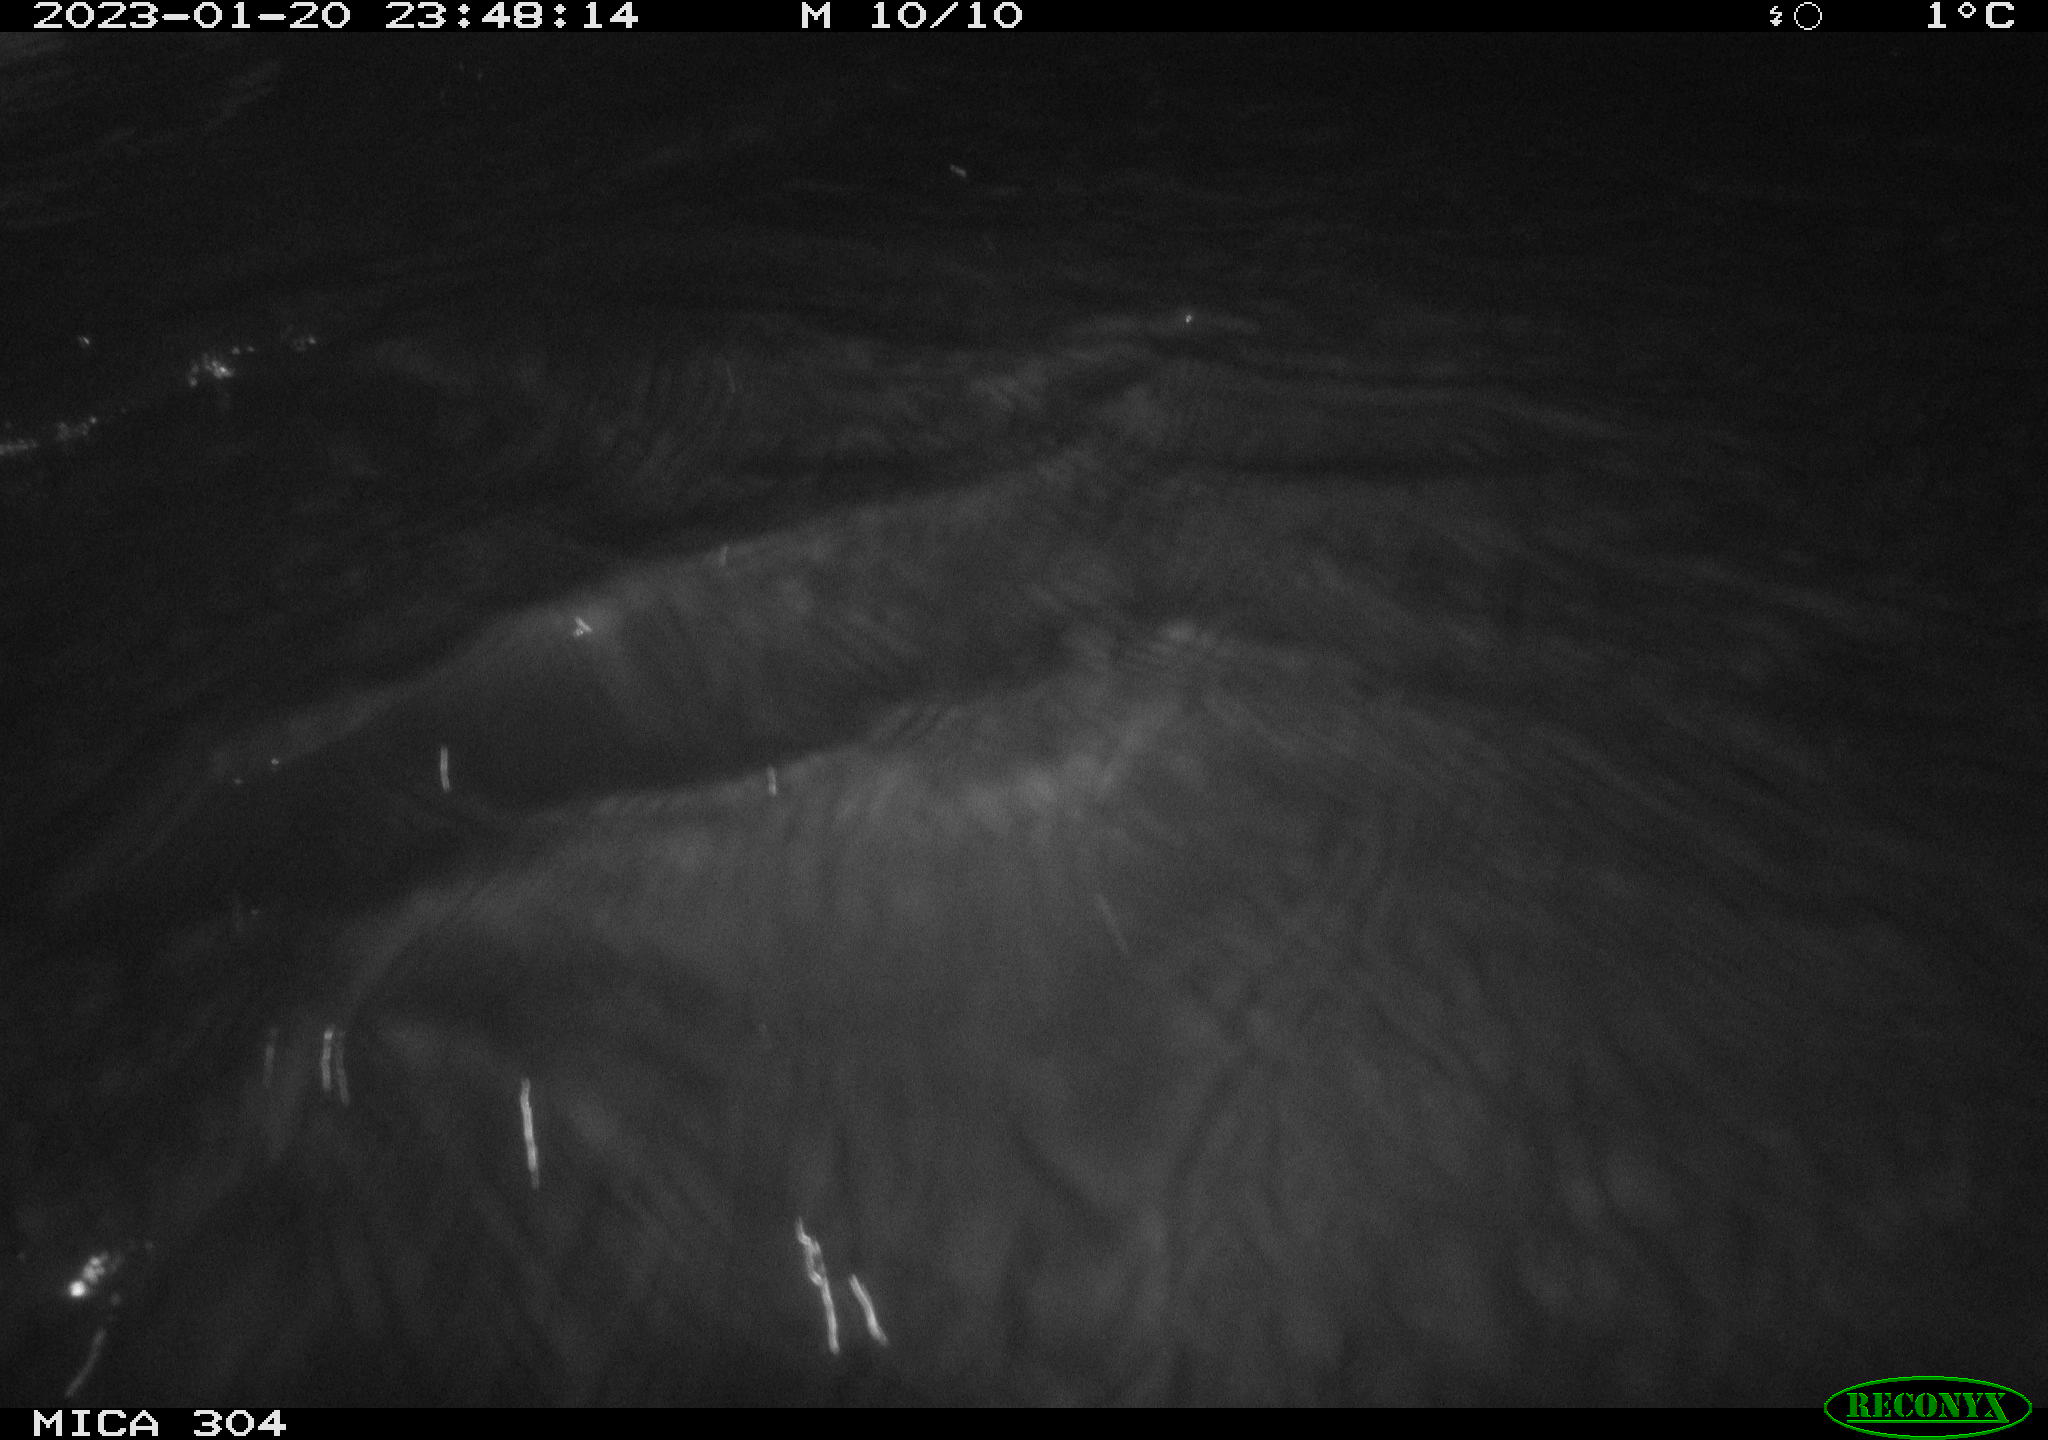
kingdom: Animalia
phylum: Chordata
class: Mammalia
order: Rodentia
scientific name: Rodentia
